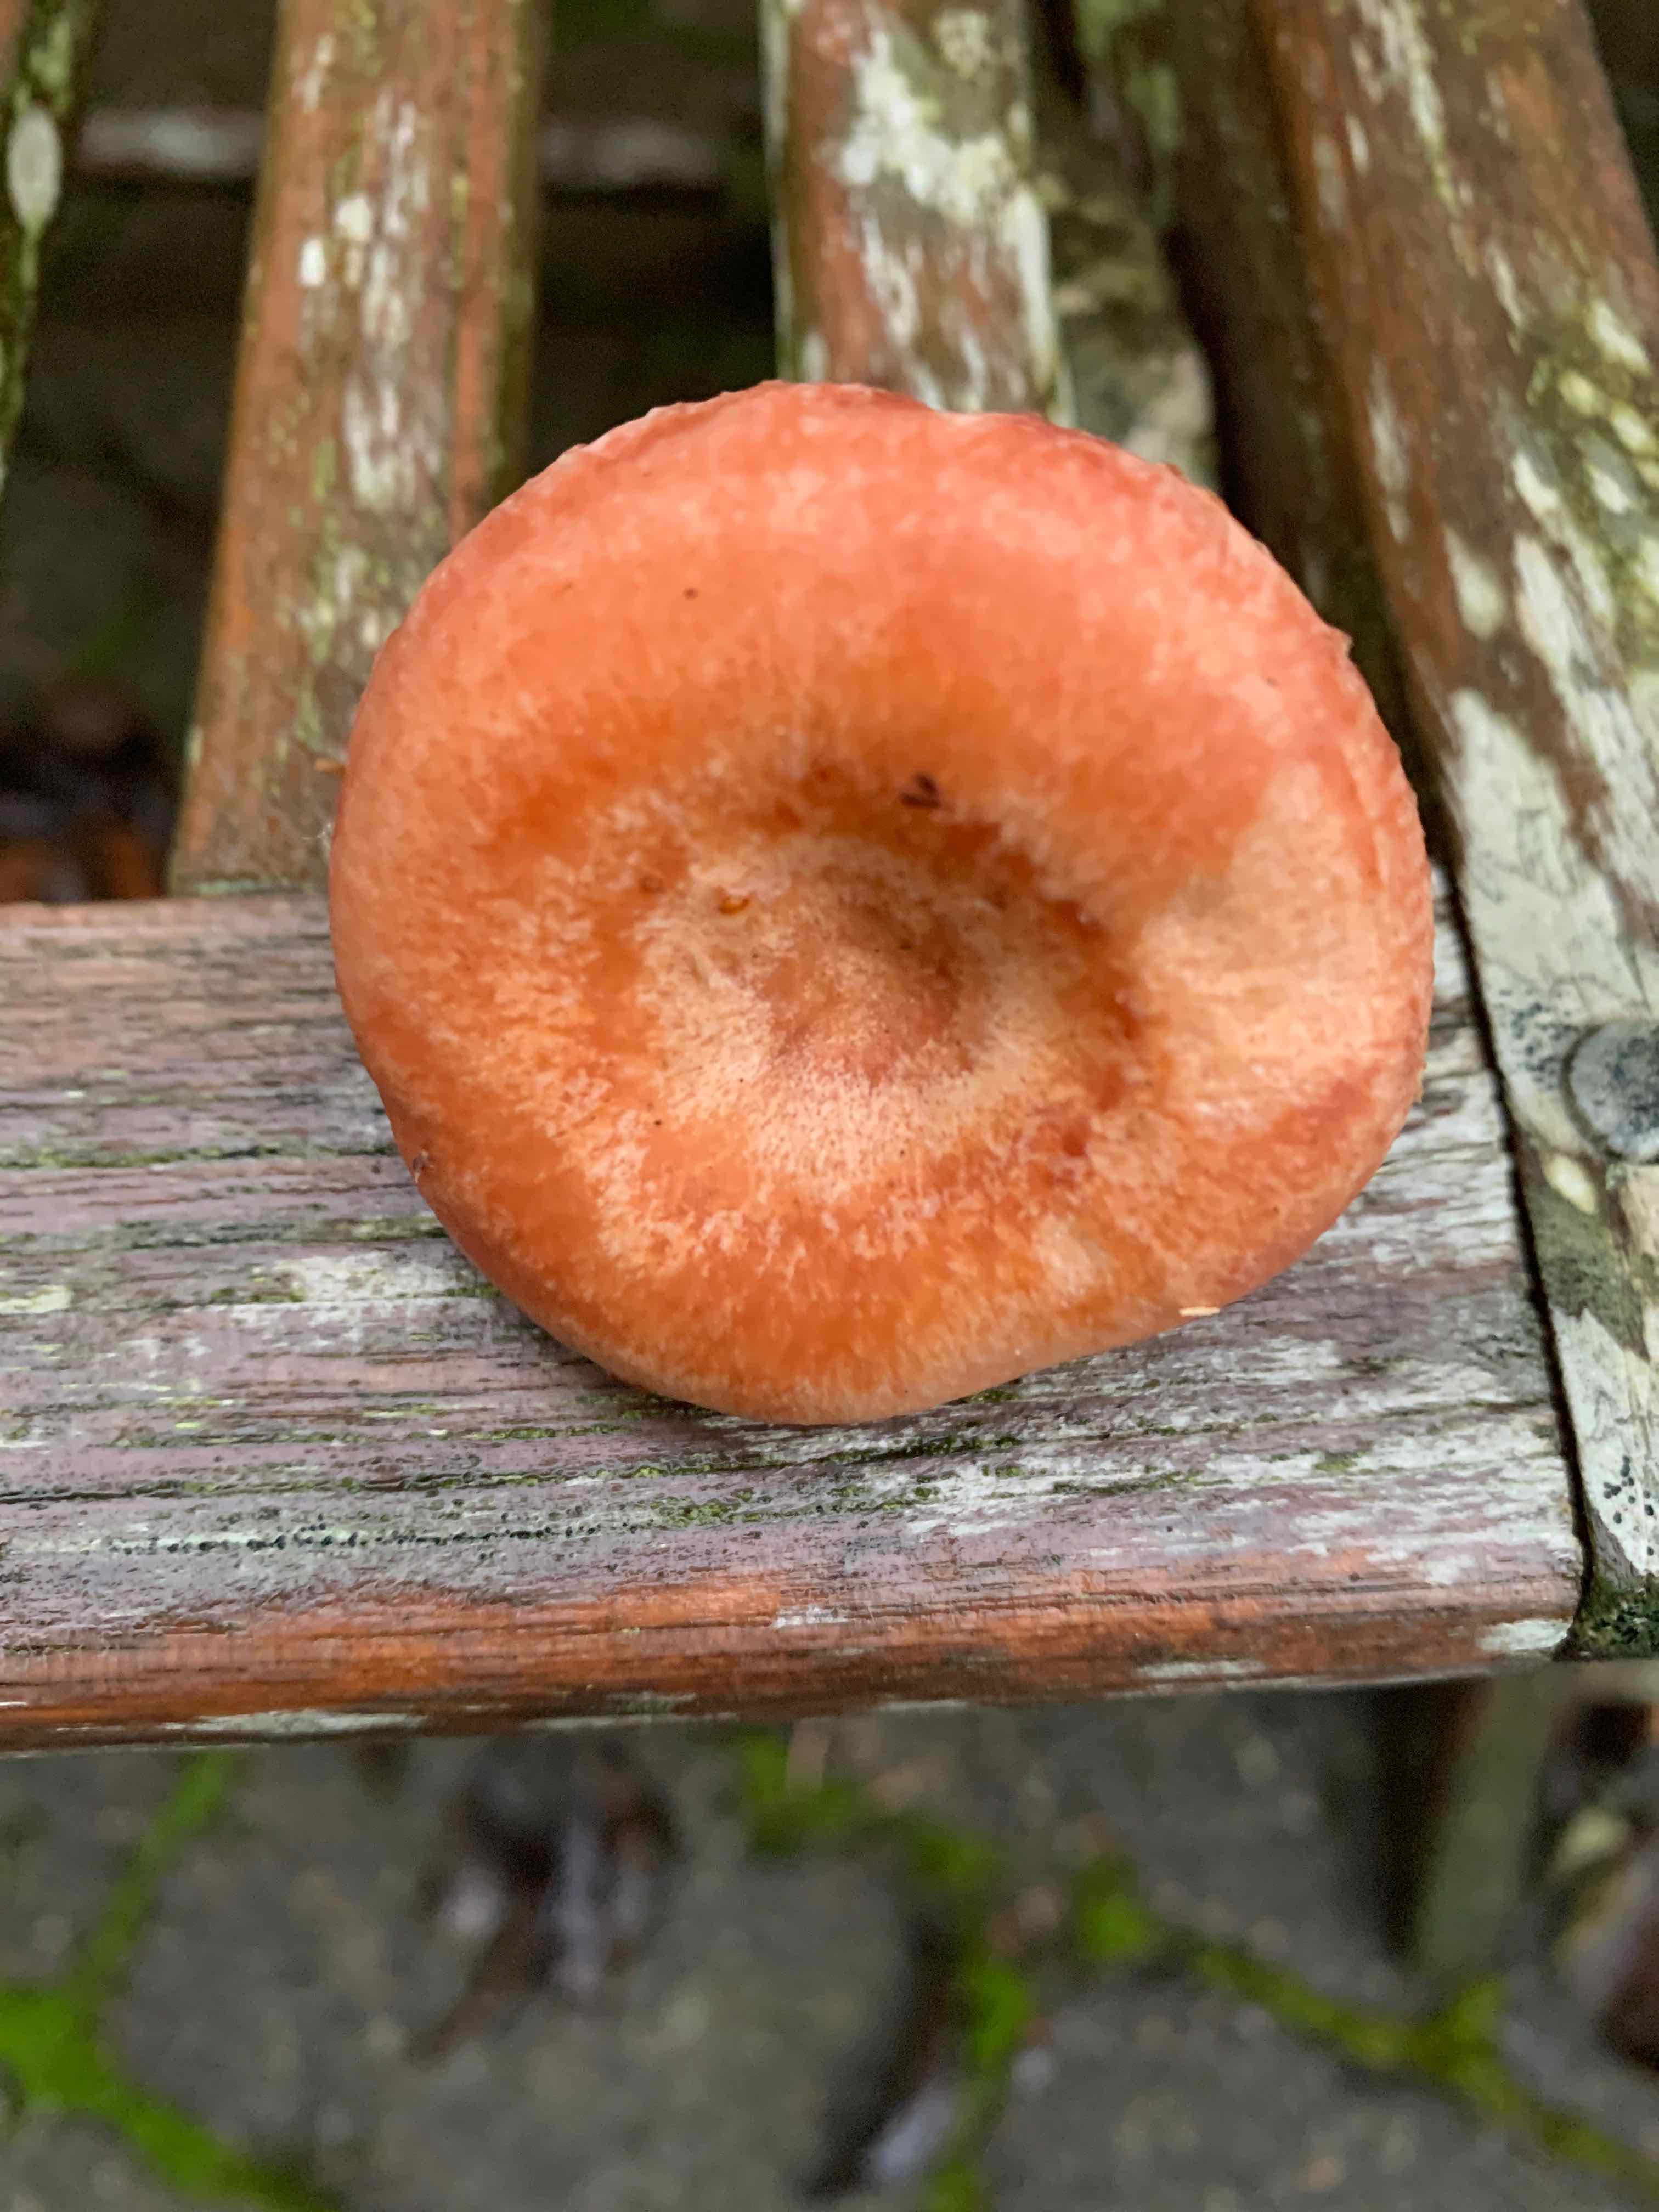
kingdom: Fungi
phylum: Basidiomycota
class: Agaricomycetes
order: Russulales
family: Russulaceae
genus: Lactarius
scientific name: Lactarius torminosus
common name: skægget mælkehat
